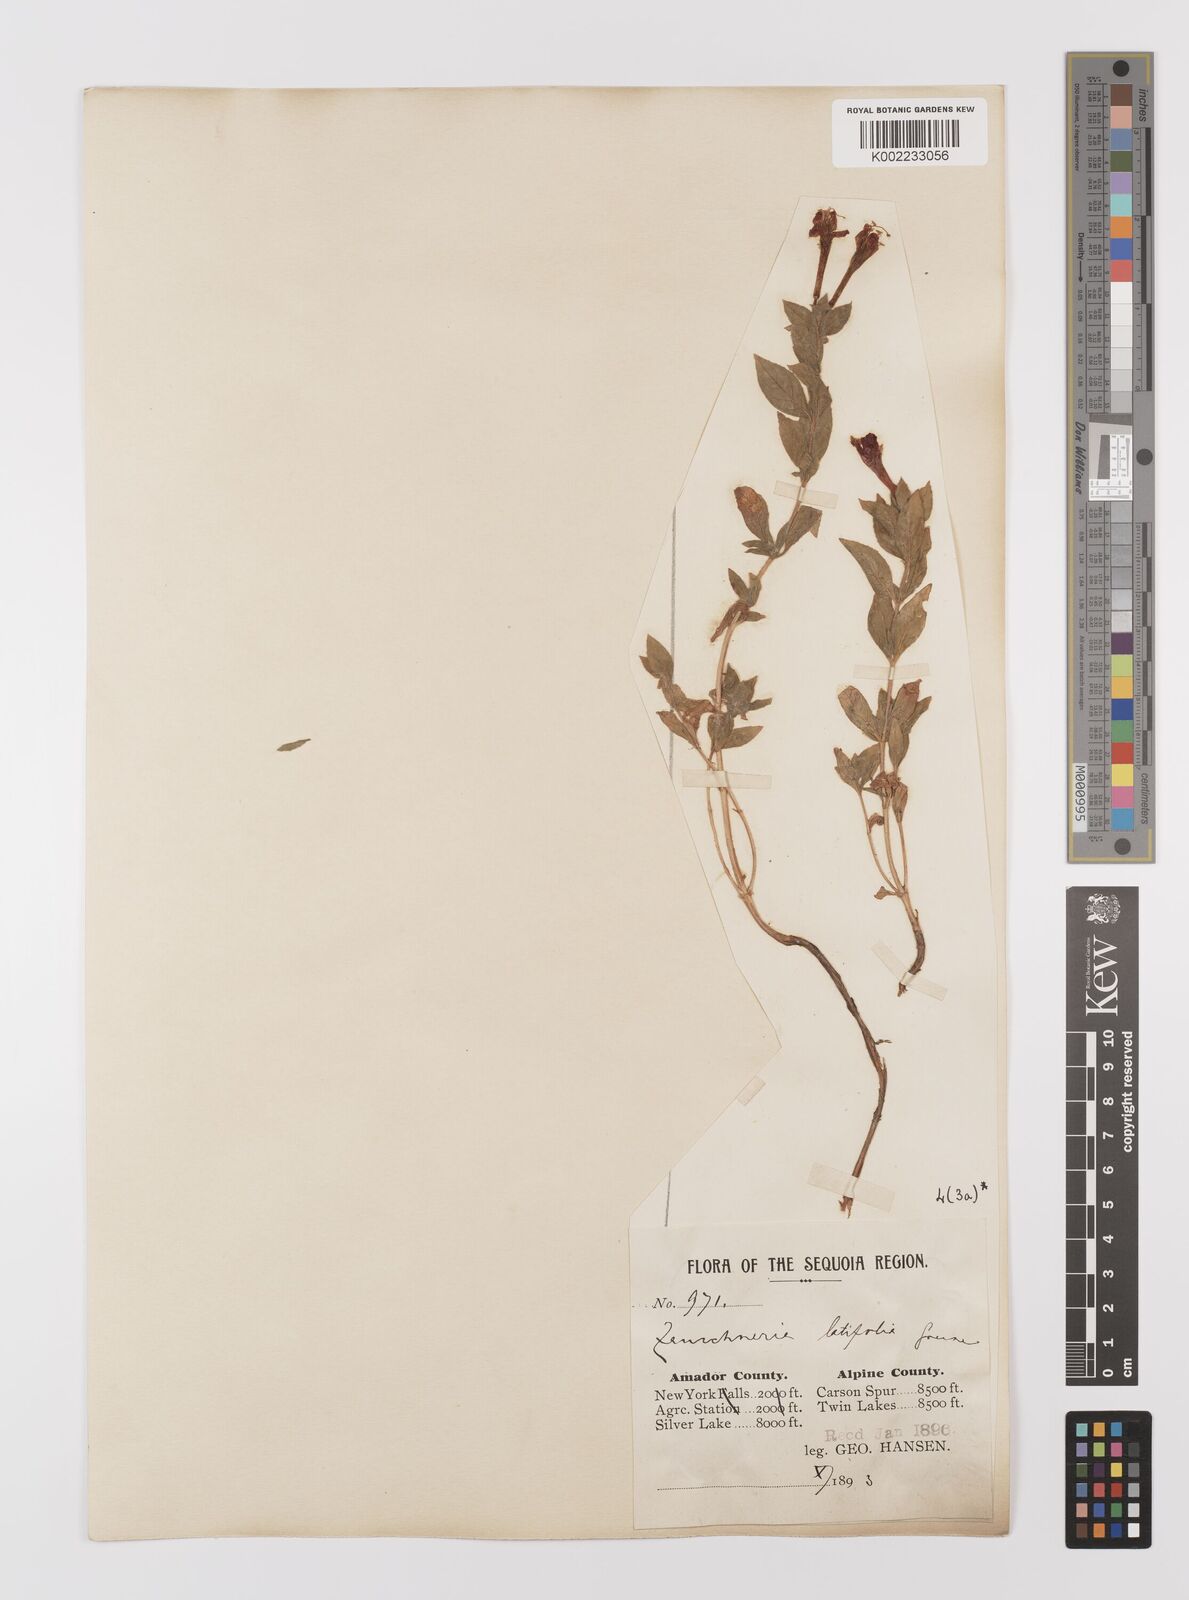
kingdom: Plantae
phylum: Tracheophyta
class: Magnoliopsida
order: Myrtales
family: Onagraceae
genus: Epilobium
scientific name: Epilobium
